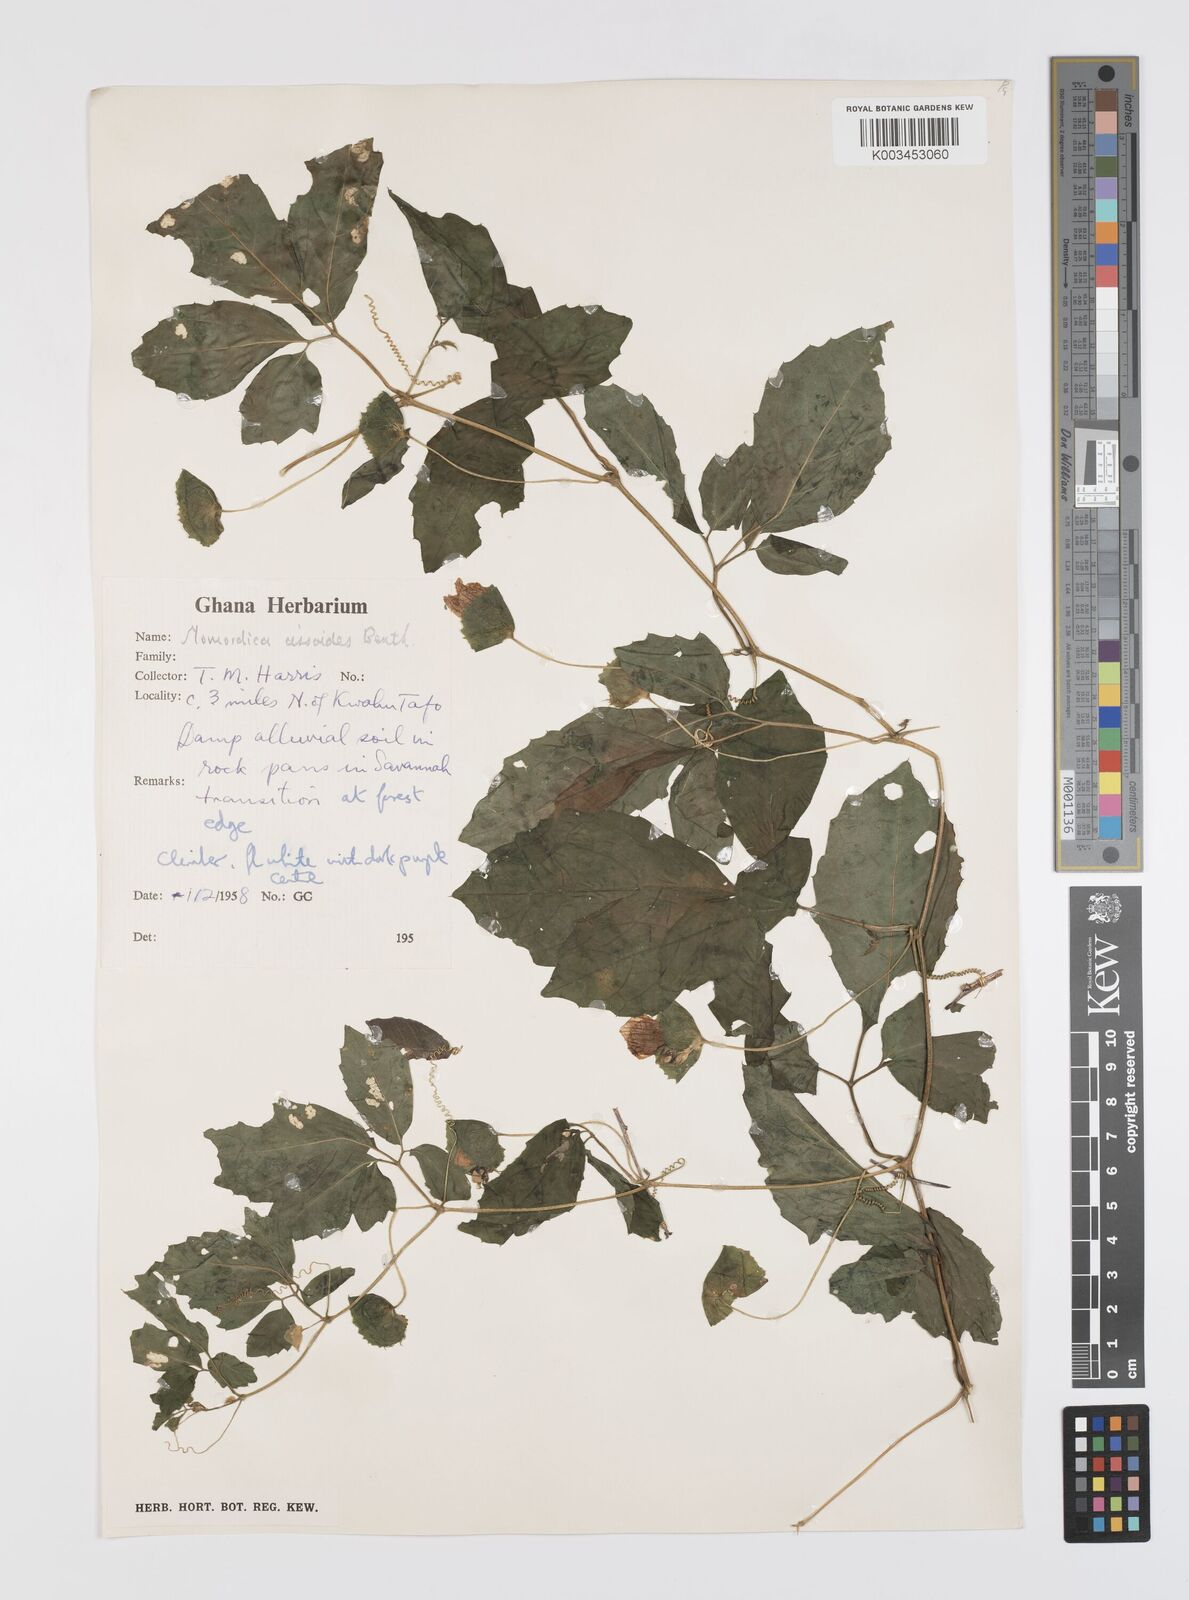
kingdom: Plantae
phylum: Tracheophyta
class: Magnoliopsida
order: Cucurbitales
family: Cucurbitaceae
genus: Momordica
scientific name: Momordica cissoides
